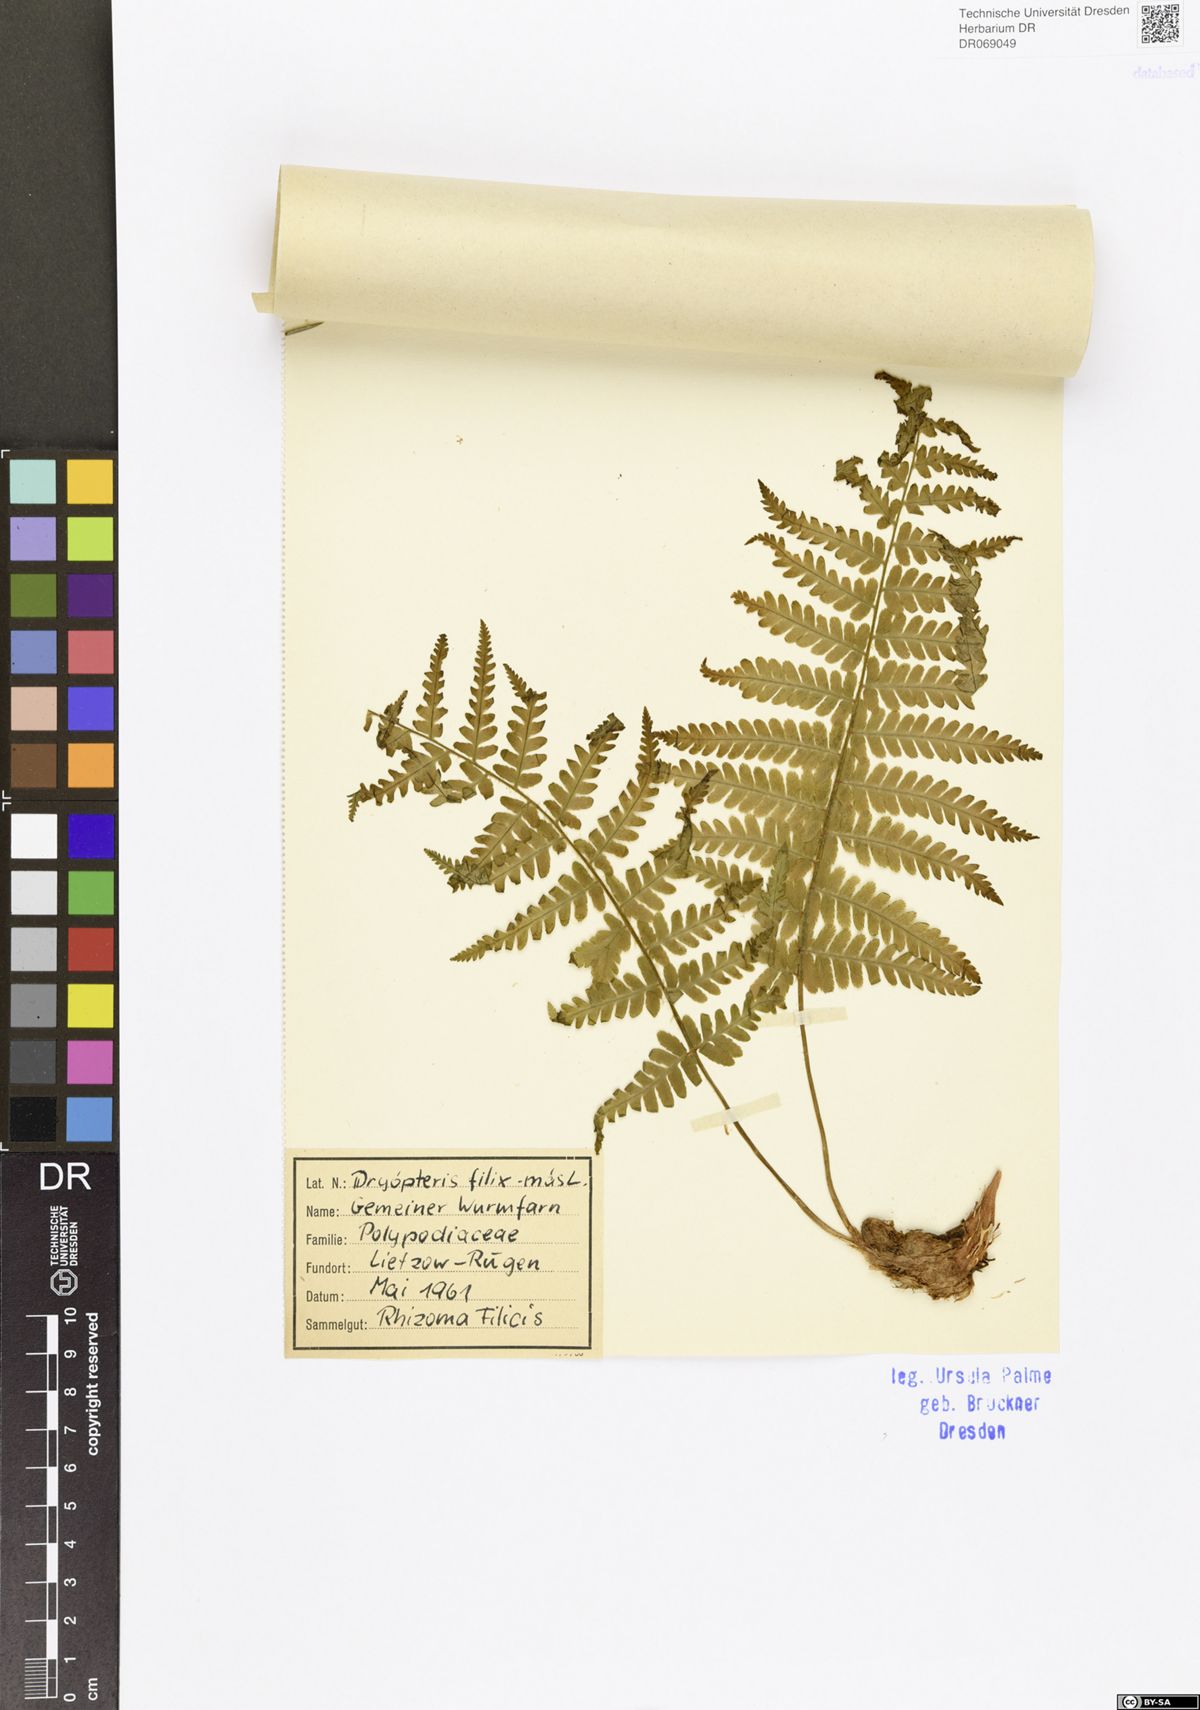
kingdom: Plantae
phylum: Tracheophyta
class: Polypodiopsida
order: Polypodiales
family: Dryopteridaceae
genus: Dryopteris
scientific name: Dryopteris filix-mas
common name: Male fern
